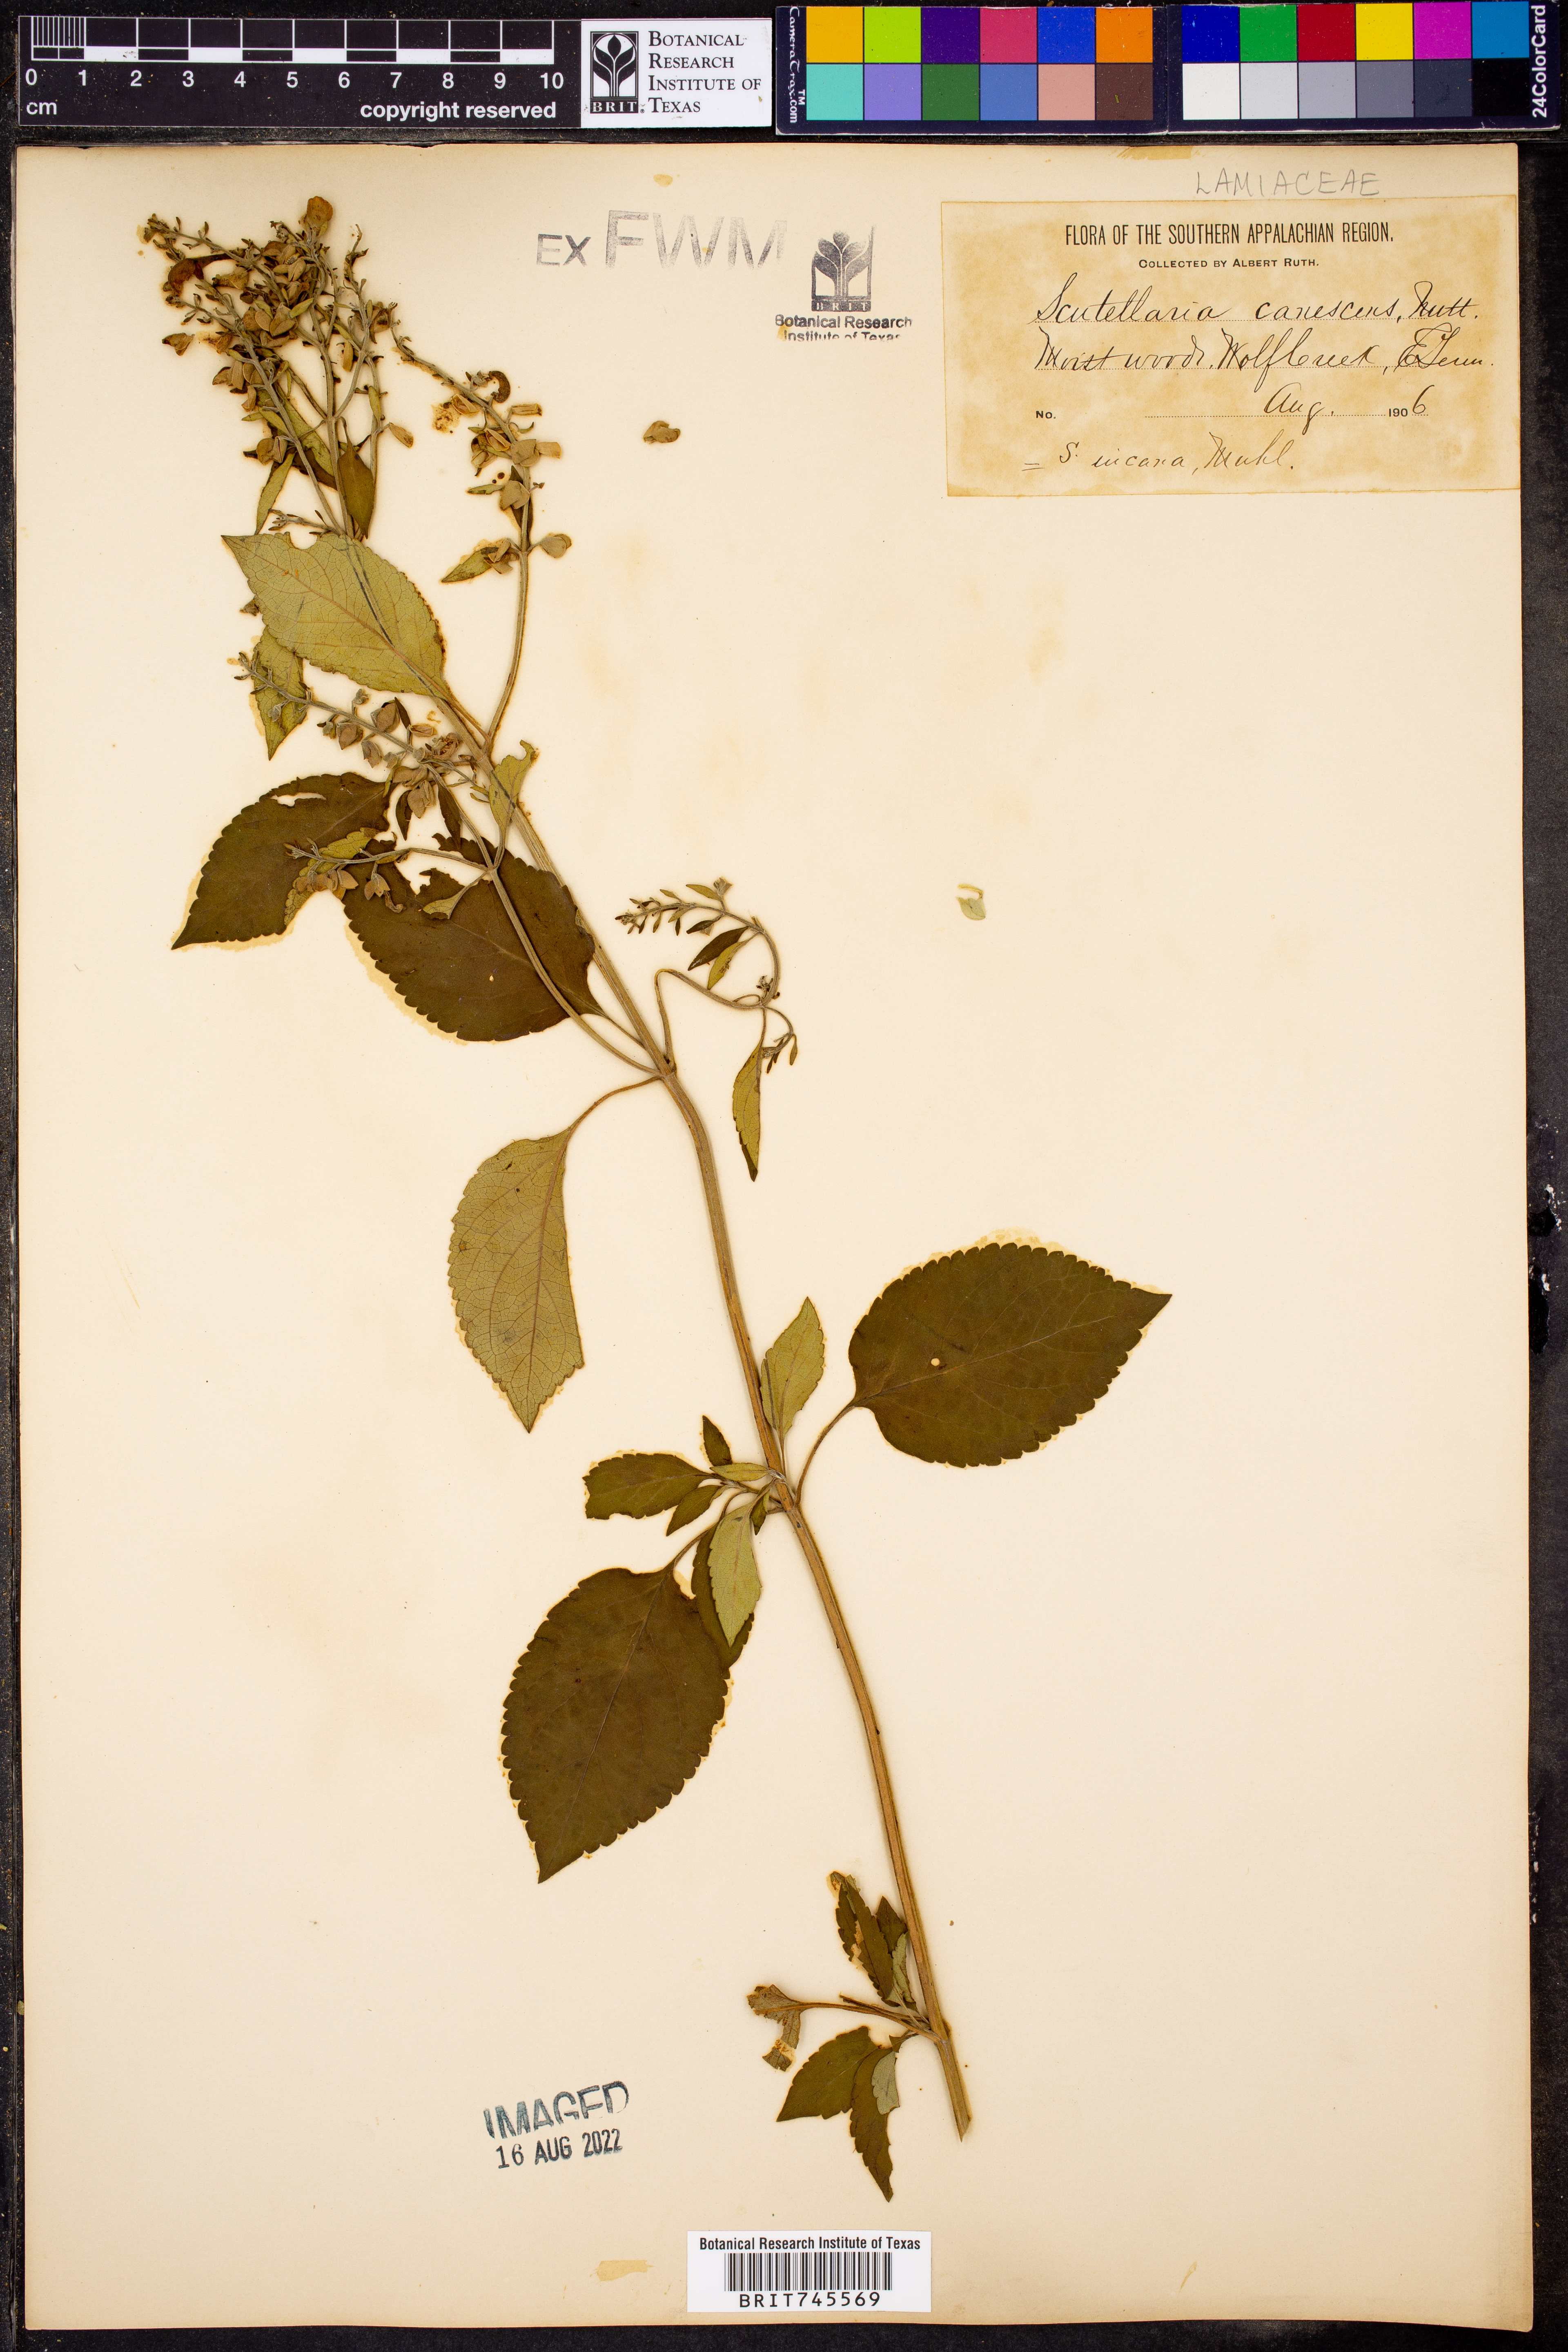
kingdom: Plantae
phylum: Tracheophyta
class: Magnoliopsida
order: Lamiales
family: Lamiaceae
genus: Scutellaria
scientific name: Scutellaria
